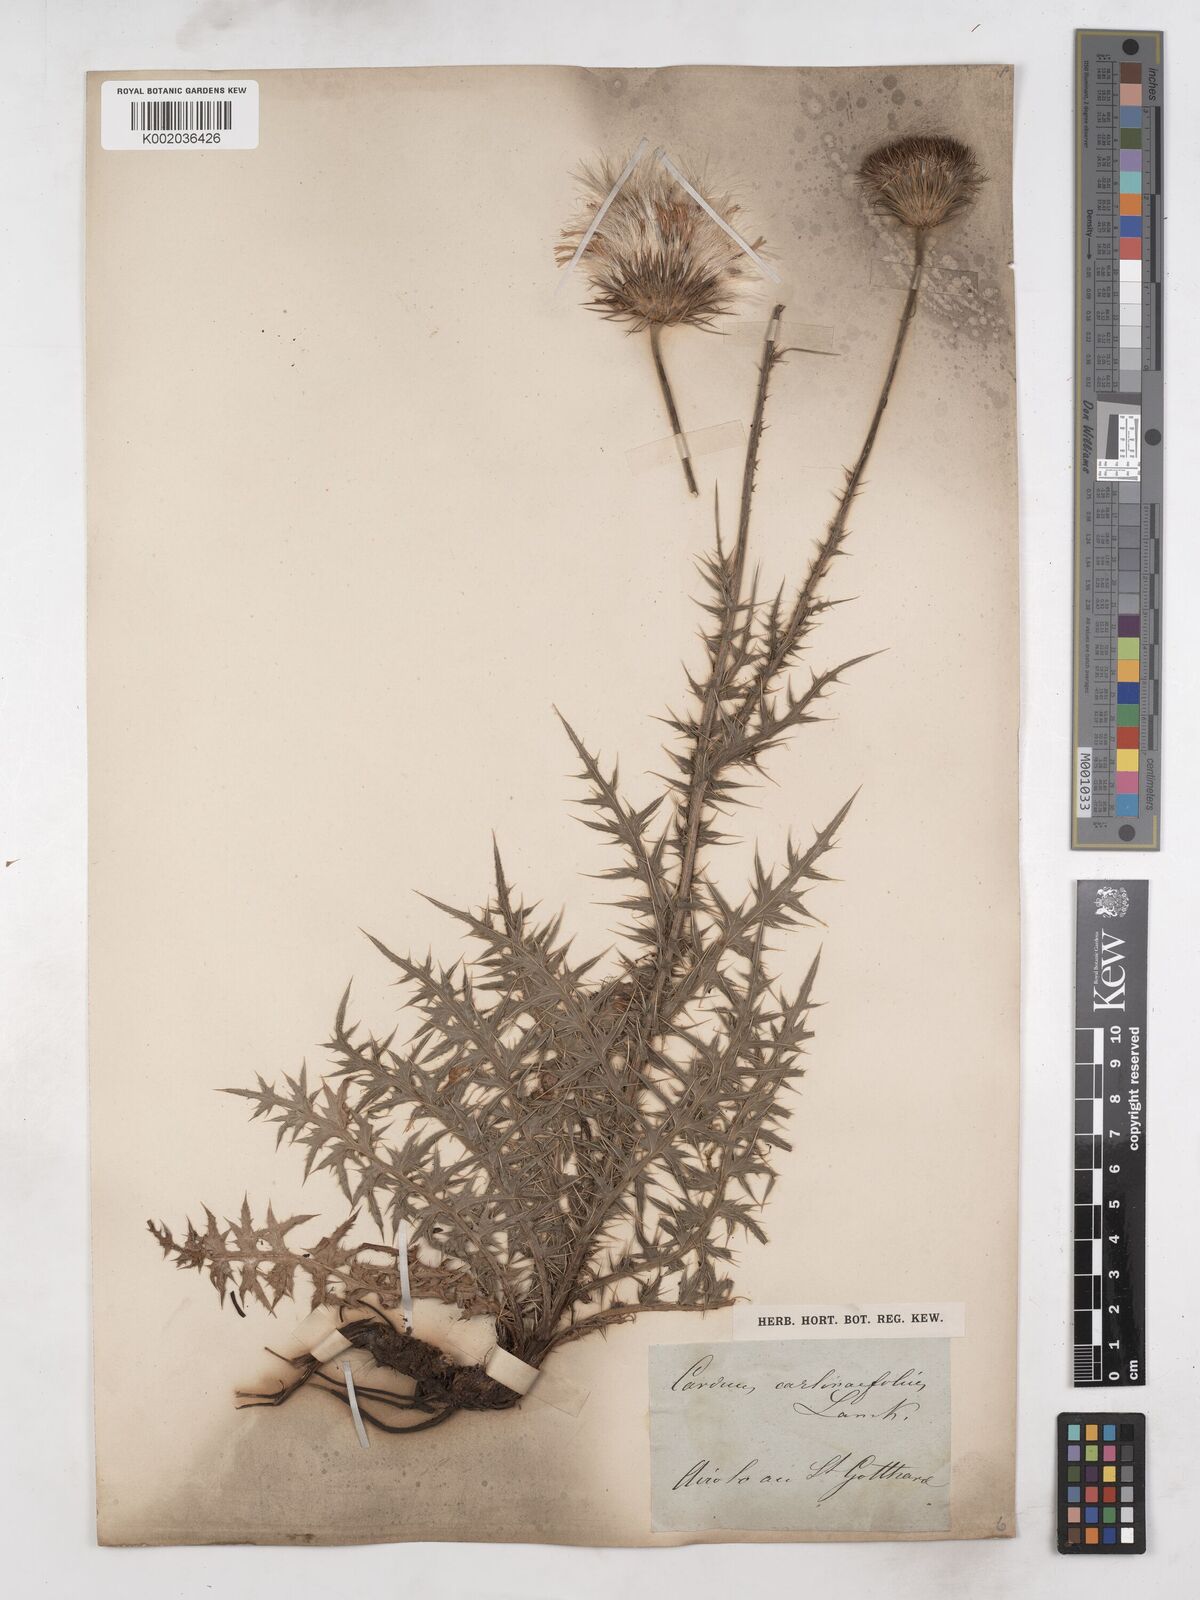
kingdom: Plantae
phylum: Tracheophyta
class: Magnoliopsida
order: Asterales
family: Asteraceae
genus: Carduus
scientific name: Carduus carlinifolius
